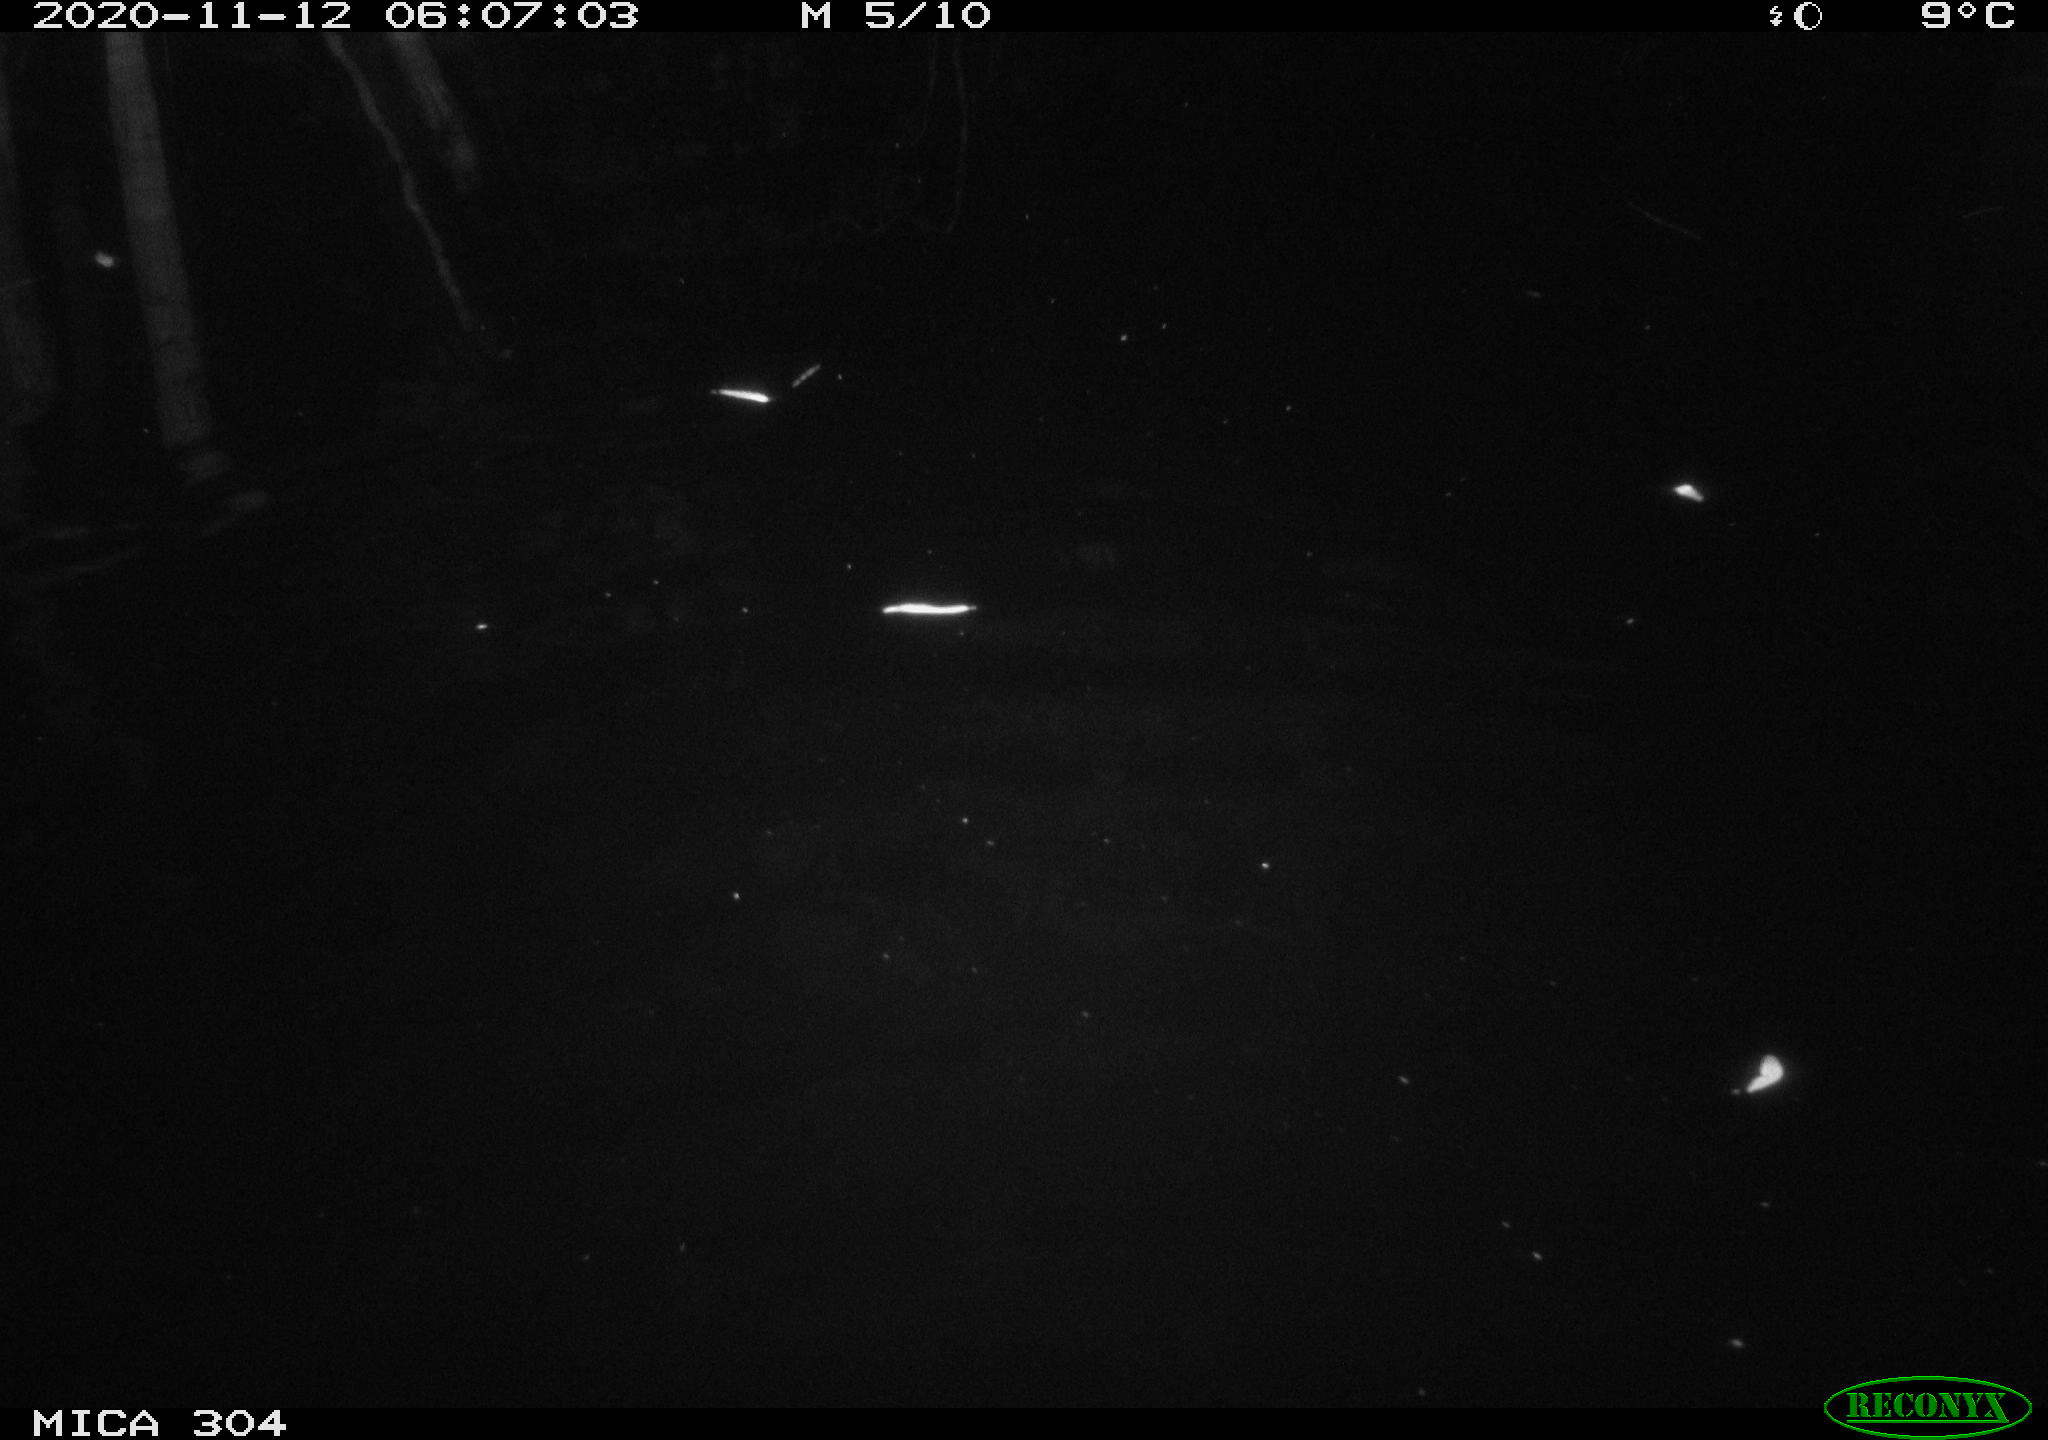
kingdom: Animalia
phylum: Chordata
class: Mammalia
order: Rodentia
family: Muridae
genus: Rattus
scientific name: Rattus norvegicus
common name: Brown rat
